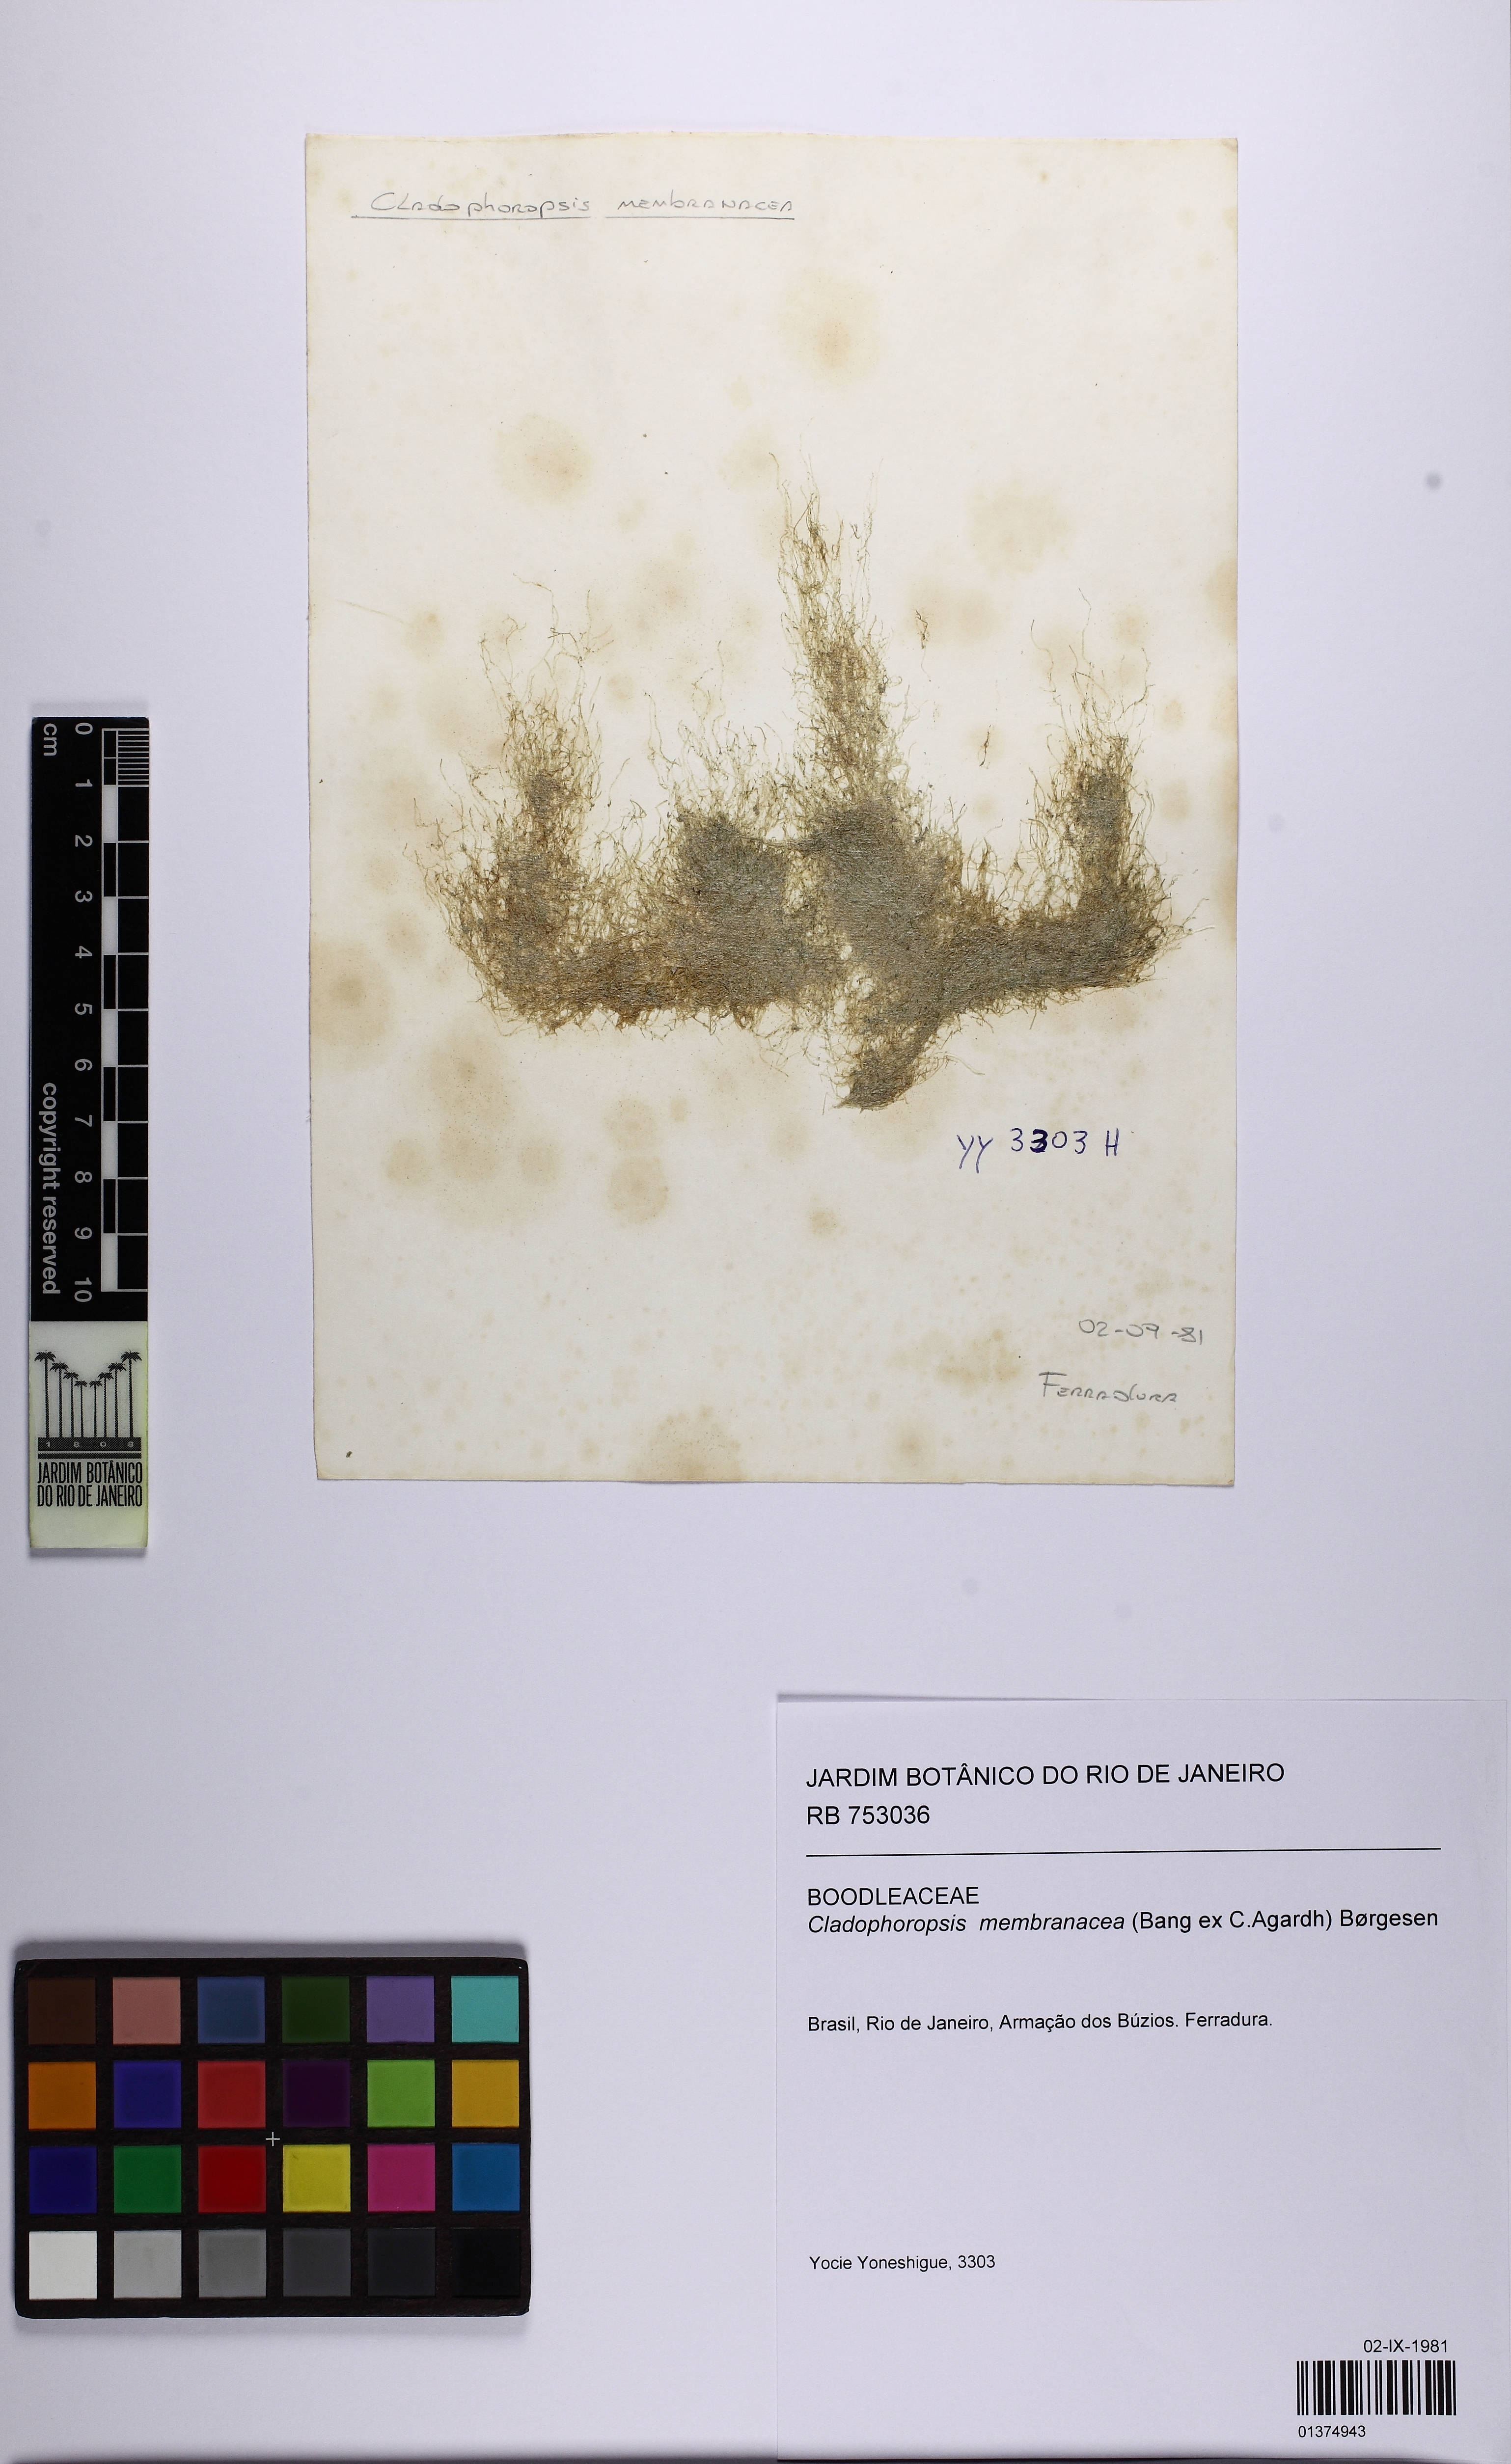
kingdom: Plantae
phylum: Chlorophyta
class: Ulvophyceae
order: Siphonocladales
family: Boodleaceae
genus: Cladophoropsis
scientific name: Cladophoropsis membranacea
